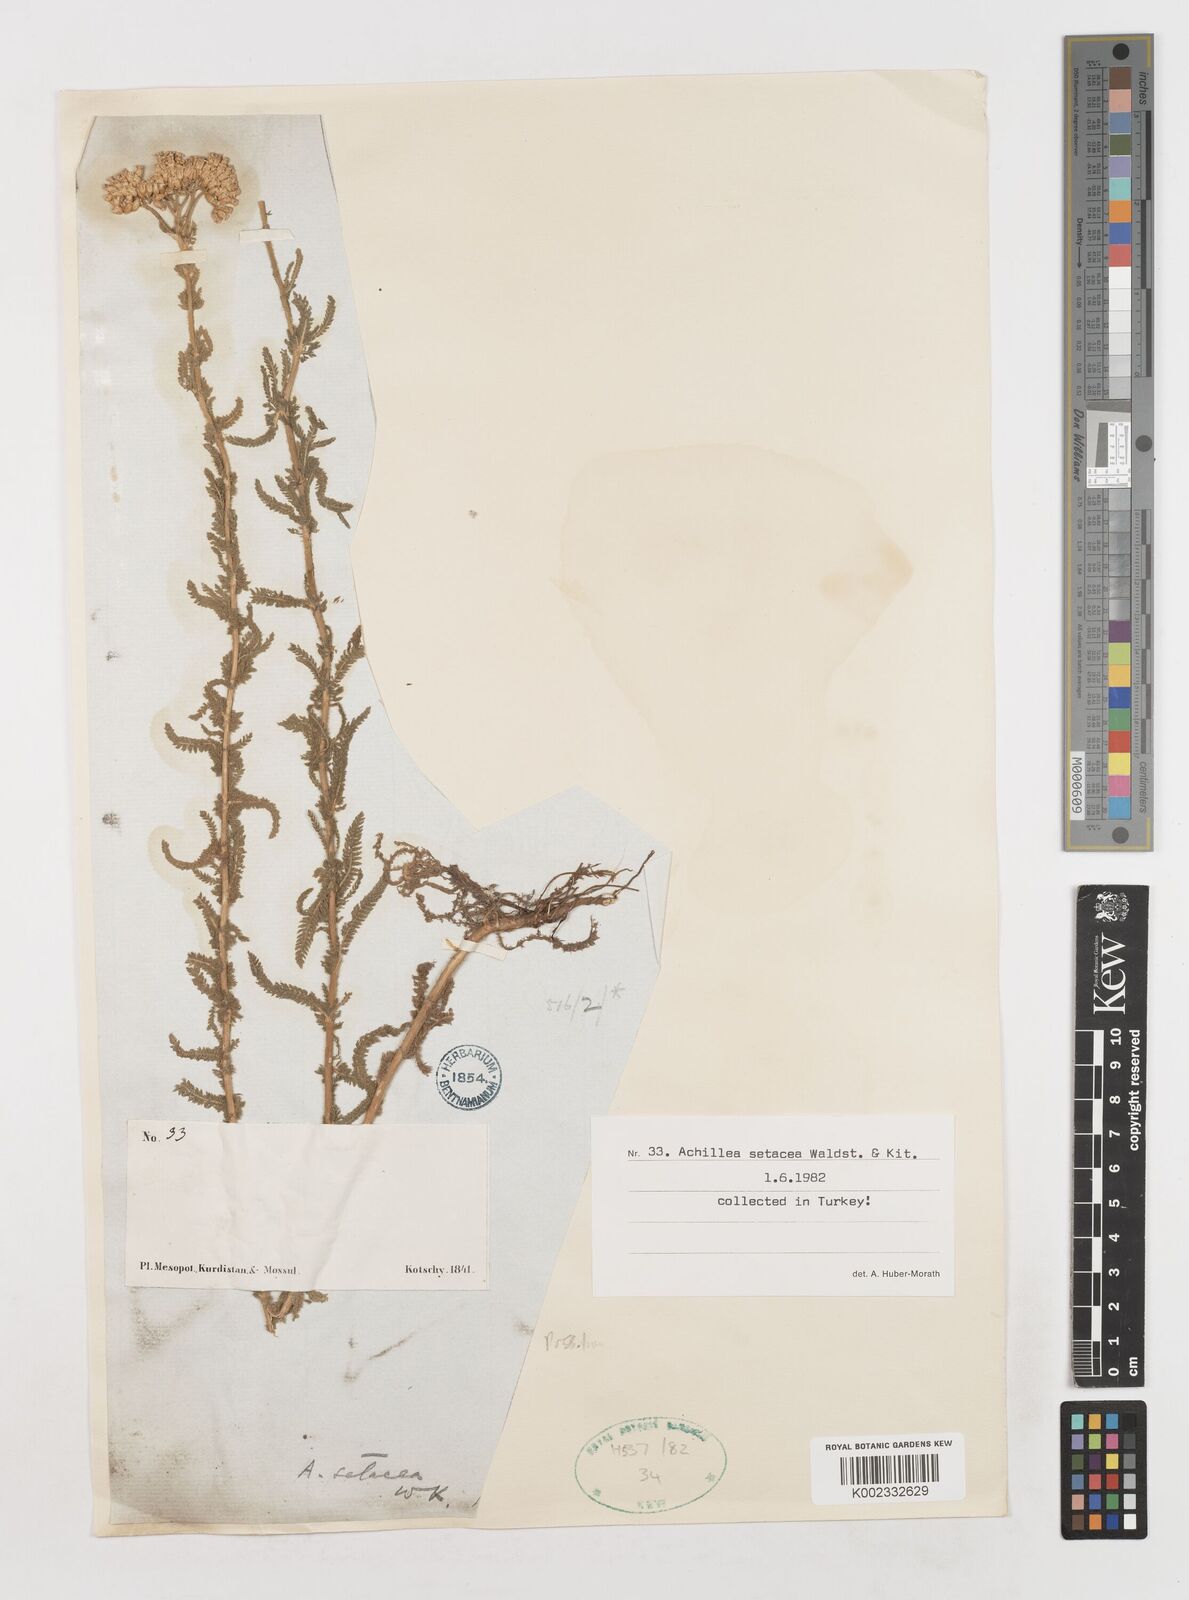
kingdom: Plantae
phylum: Tracheophyta
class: Magnoliopsida
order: Asterales
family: Asteraceae
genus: Achillea
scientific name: Achillea setacea
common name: Bristly yarrow
